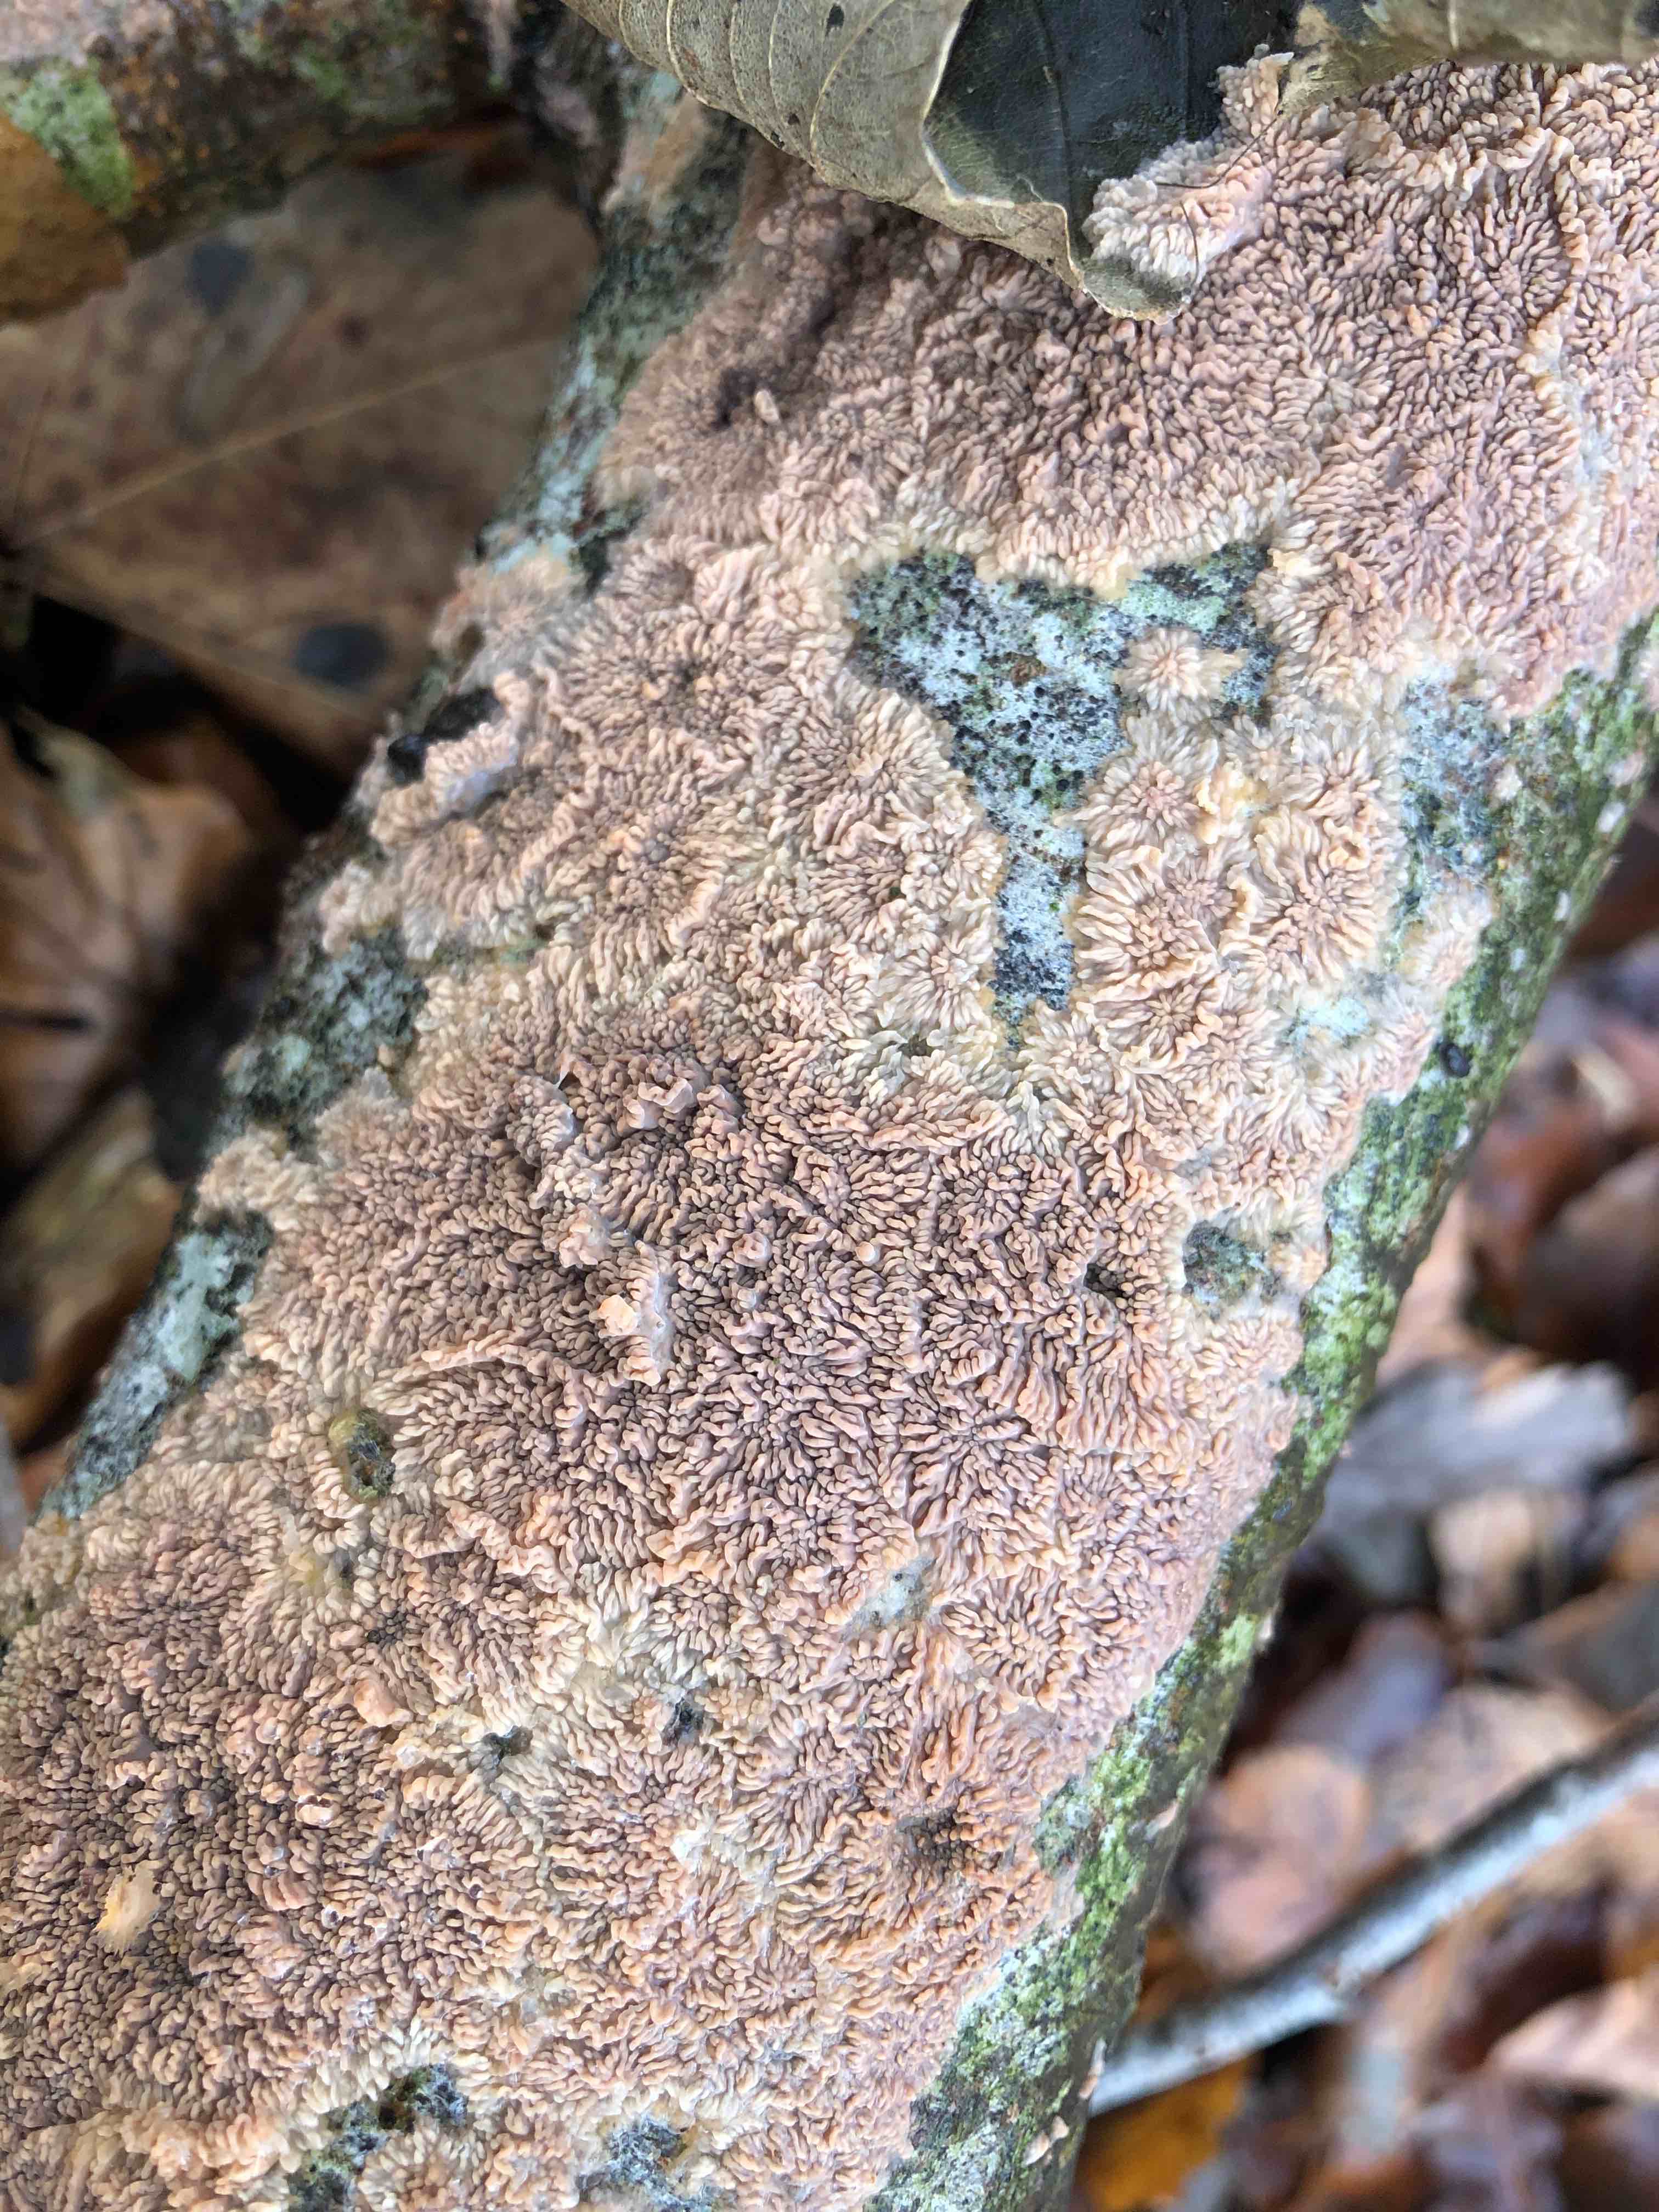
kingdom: Fungi
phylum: Basidiomycota
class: Agaricomycetes
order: Polyporales
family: Meruliaceae
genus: Phlebia
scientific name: Phlebia radiata
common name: stråle-åresvamp
